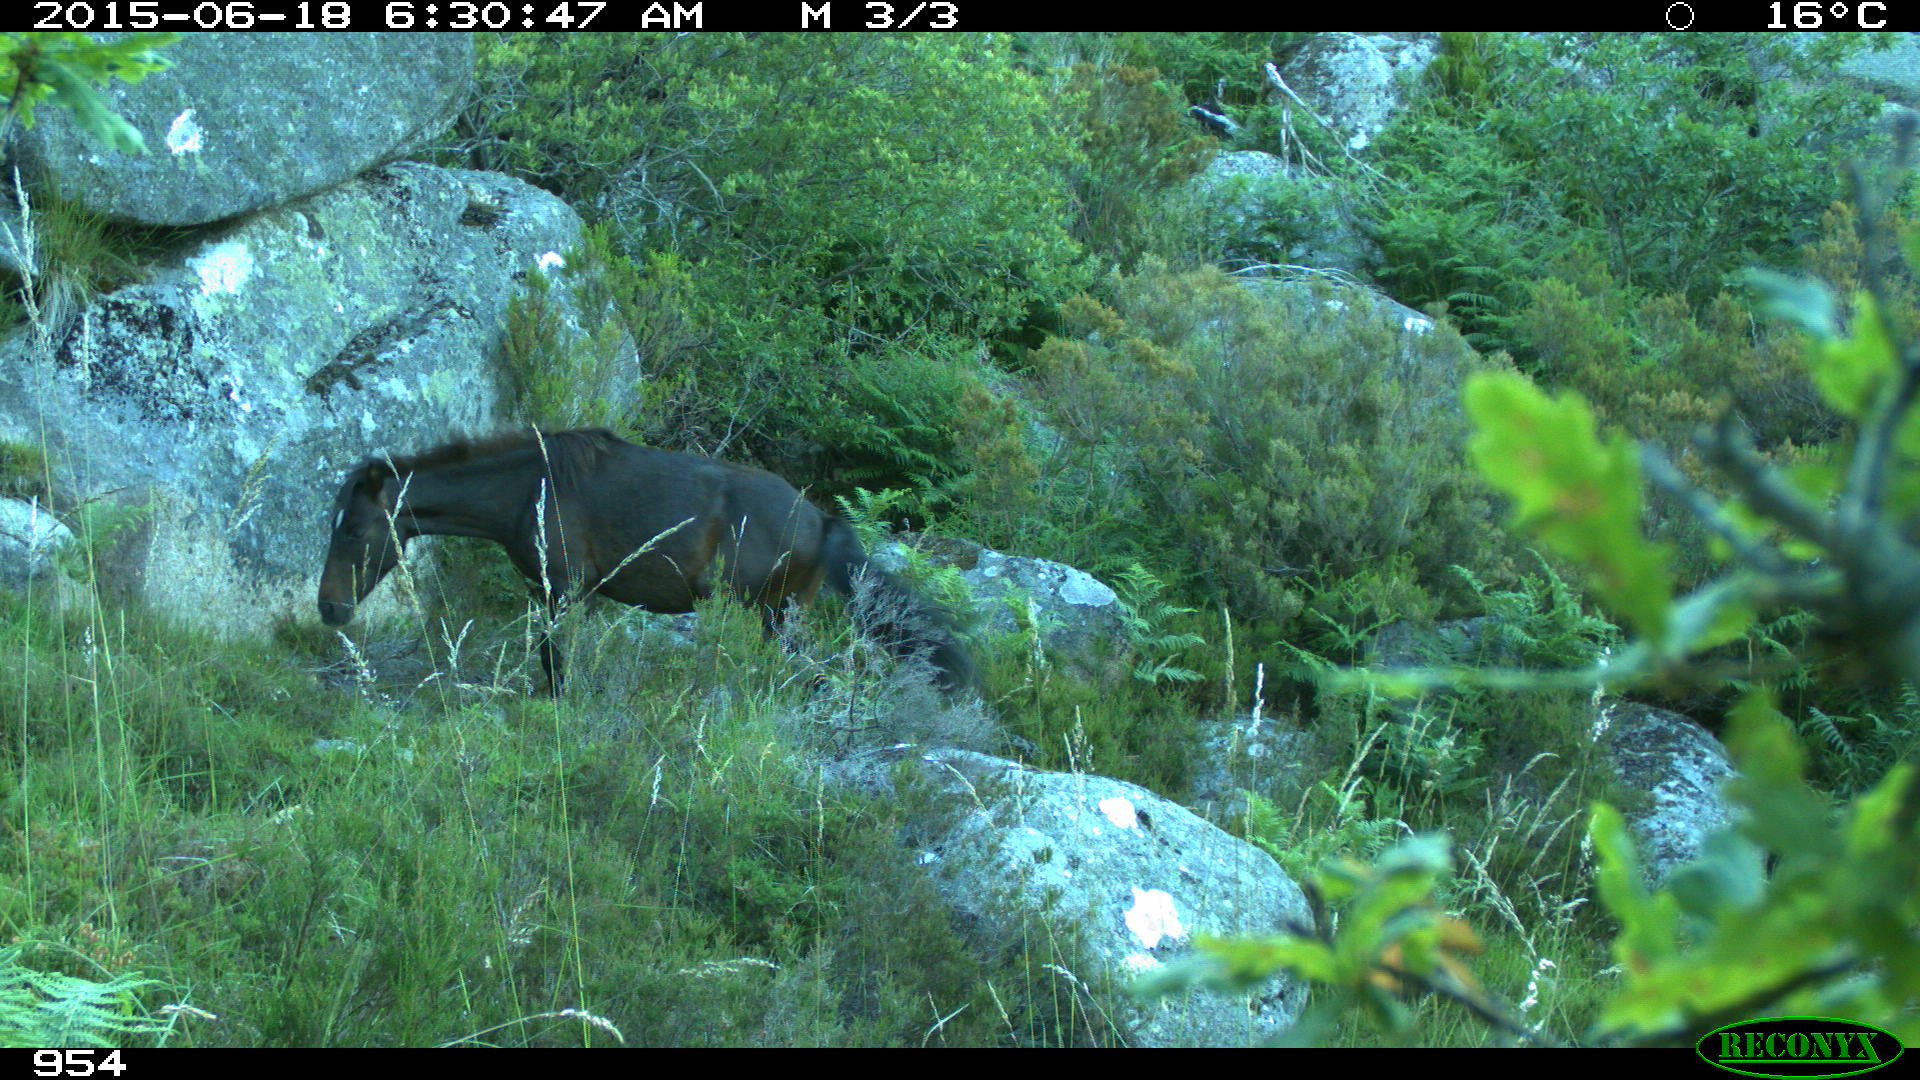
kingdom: Animalia
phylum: Chordata
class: Mammalia
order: Perissodactyla
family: Equidae
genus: Equus
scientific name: Equus caballus
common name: Horse
